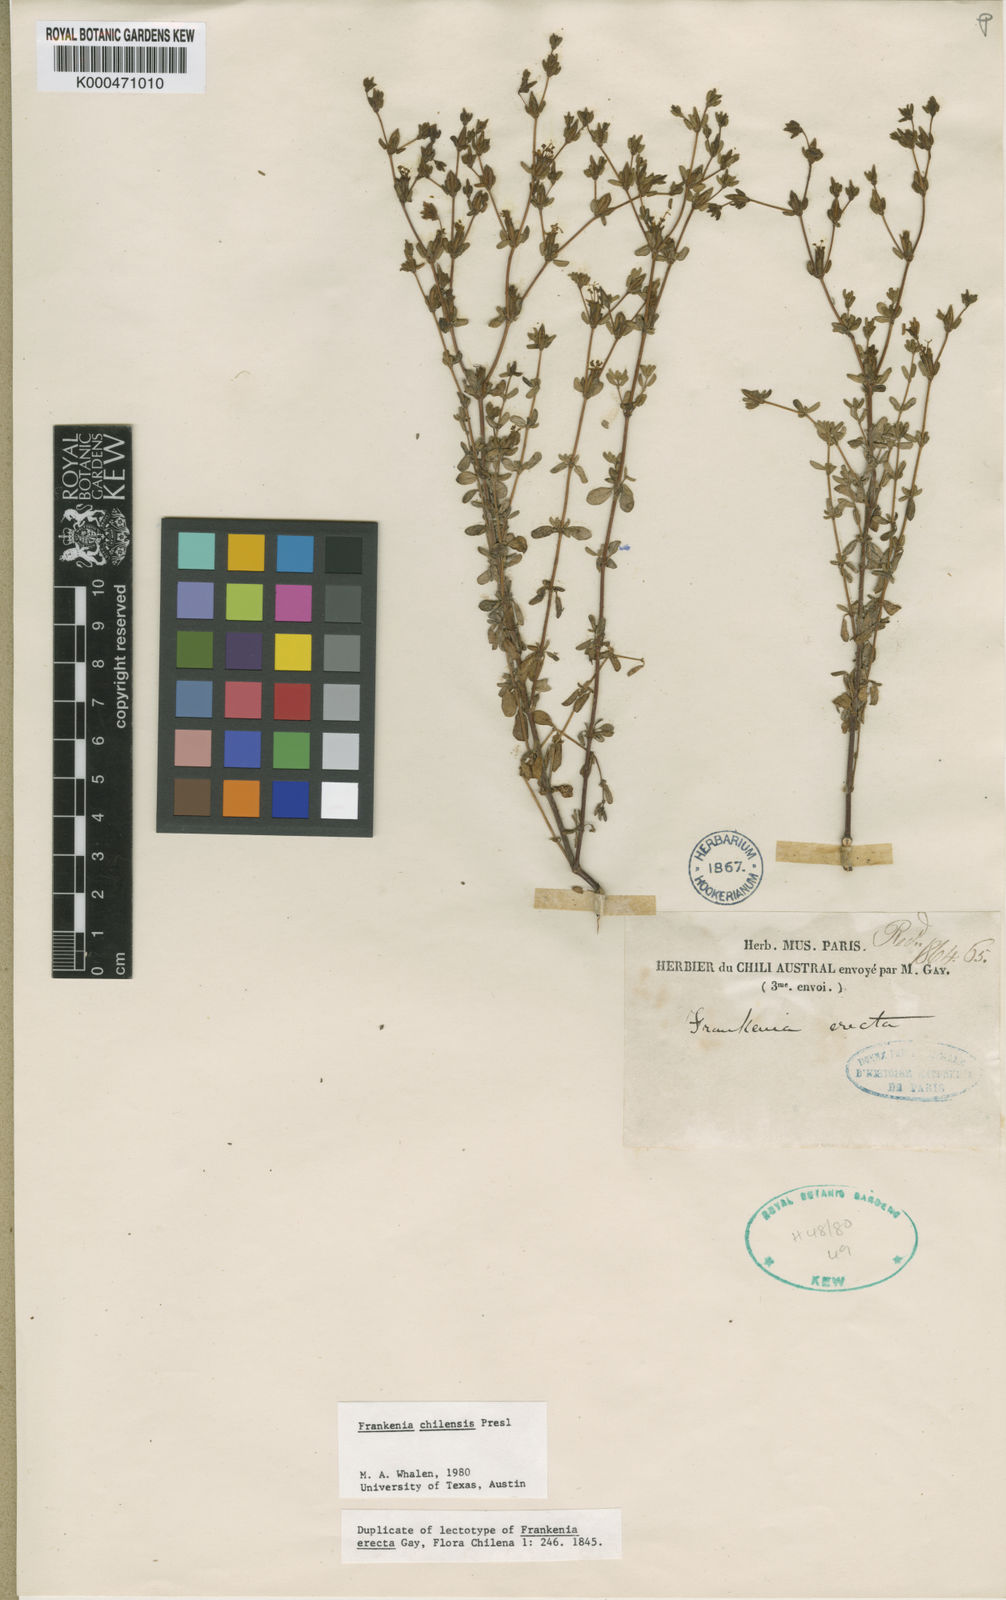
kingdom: Plantae
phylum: Tracheophyta
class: Magnoliopsida
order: Caryophyllales
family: Frankeniaceae
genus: Frankenia
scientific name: Frankenia
